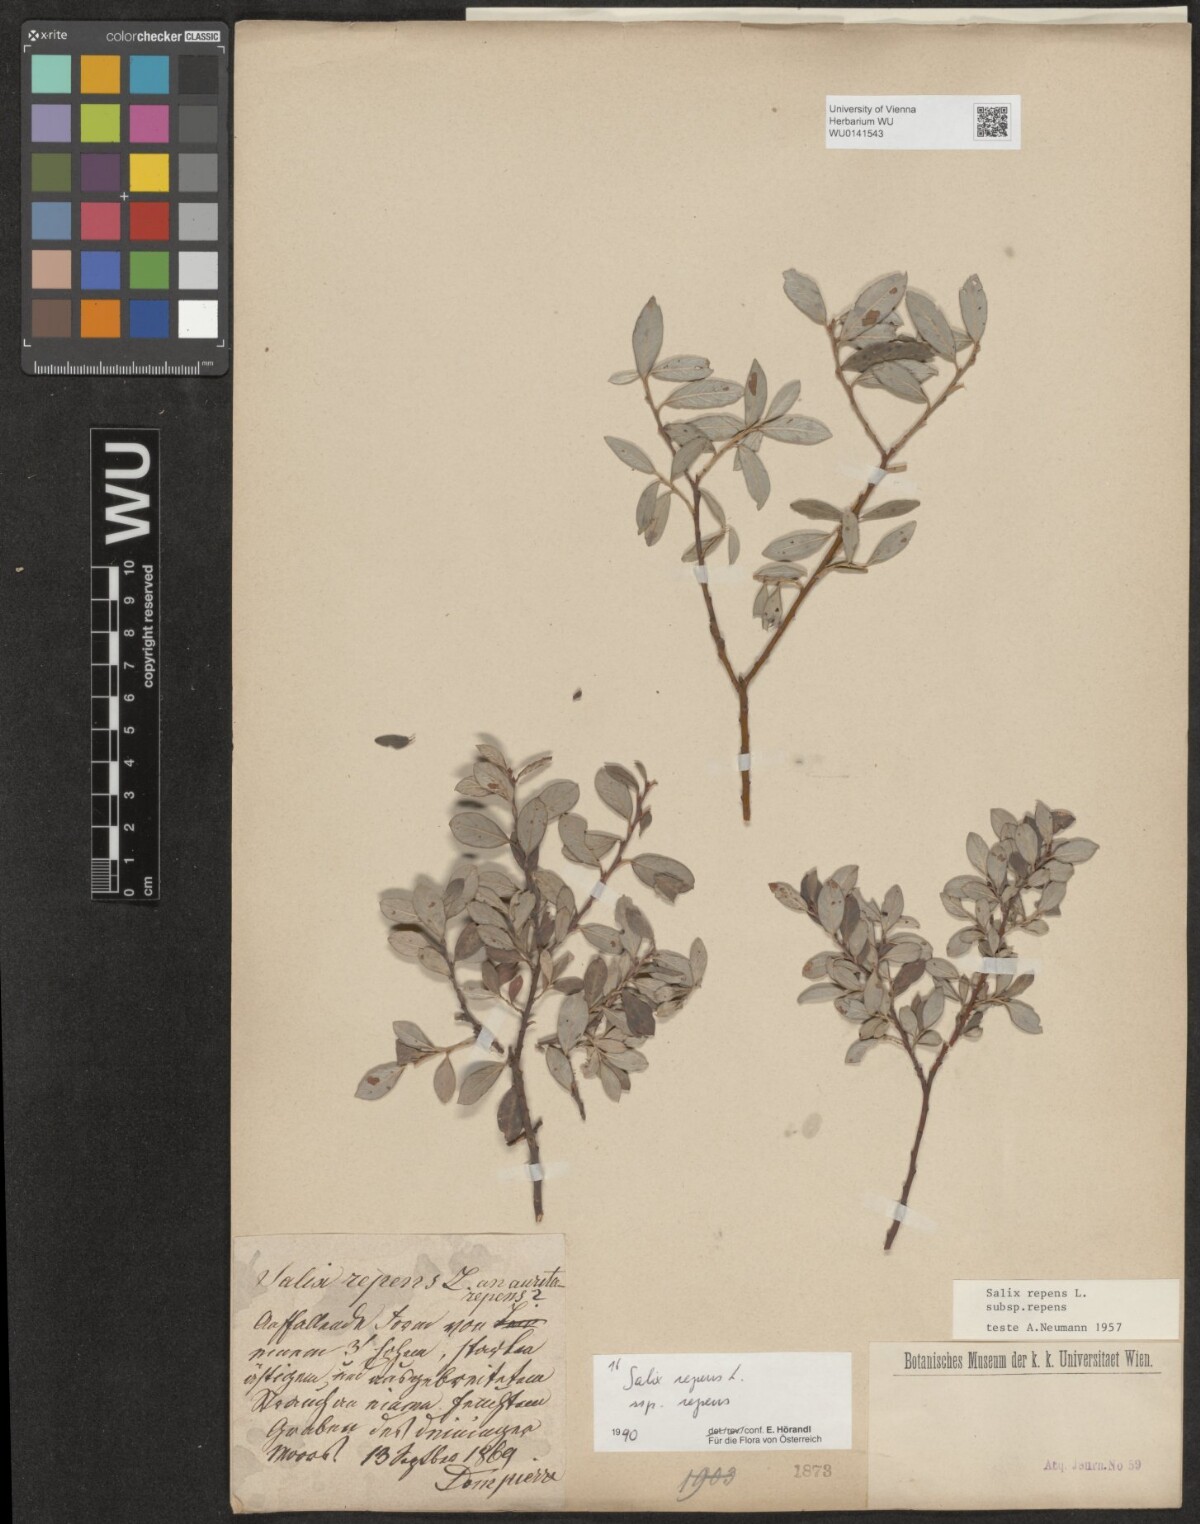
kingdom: Plantae
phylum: Tracheophyta
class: Magnoliopsida
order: Malpighiales
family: Salicaceae
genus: Salix
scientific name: Salix repens
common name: Creeping willow
